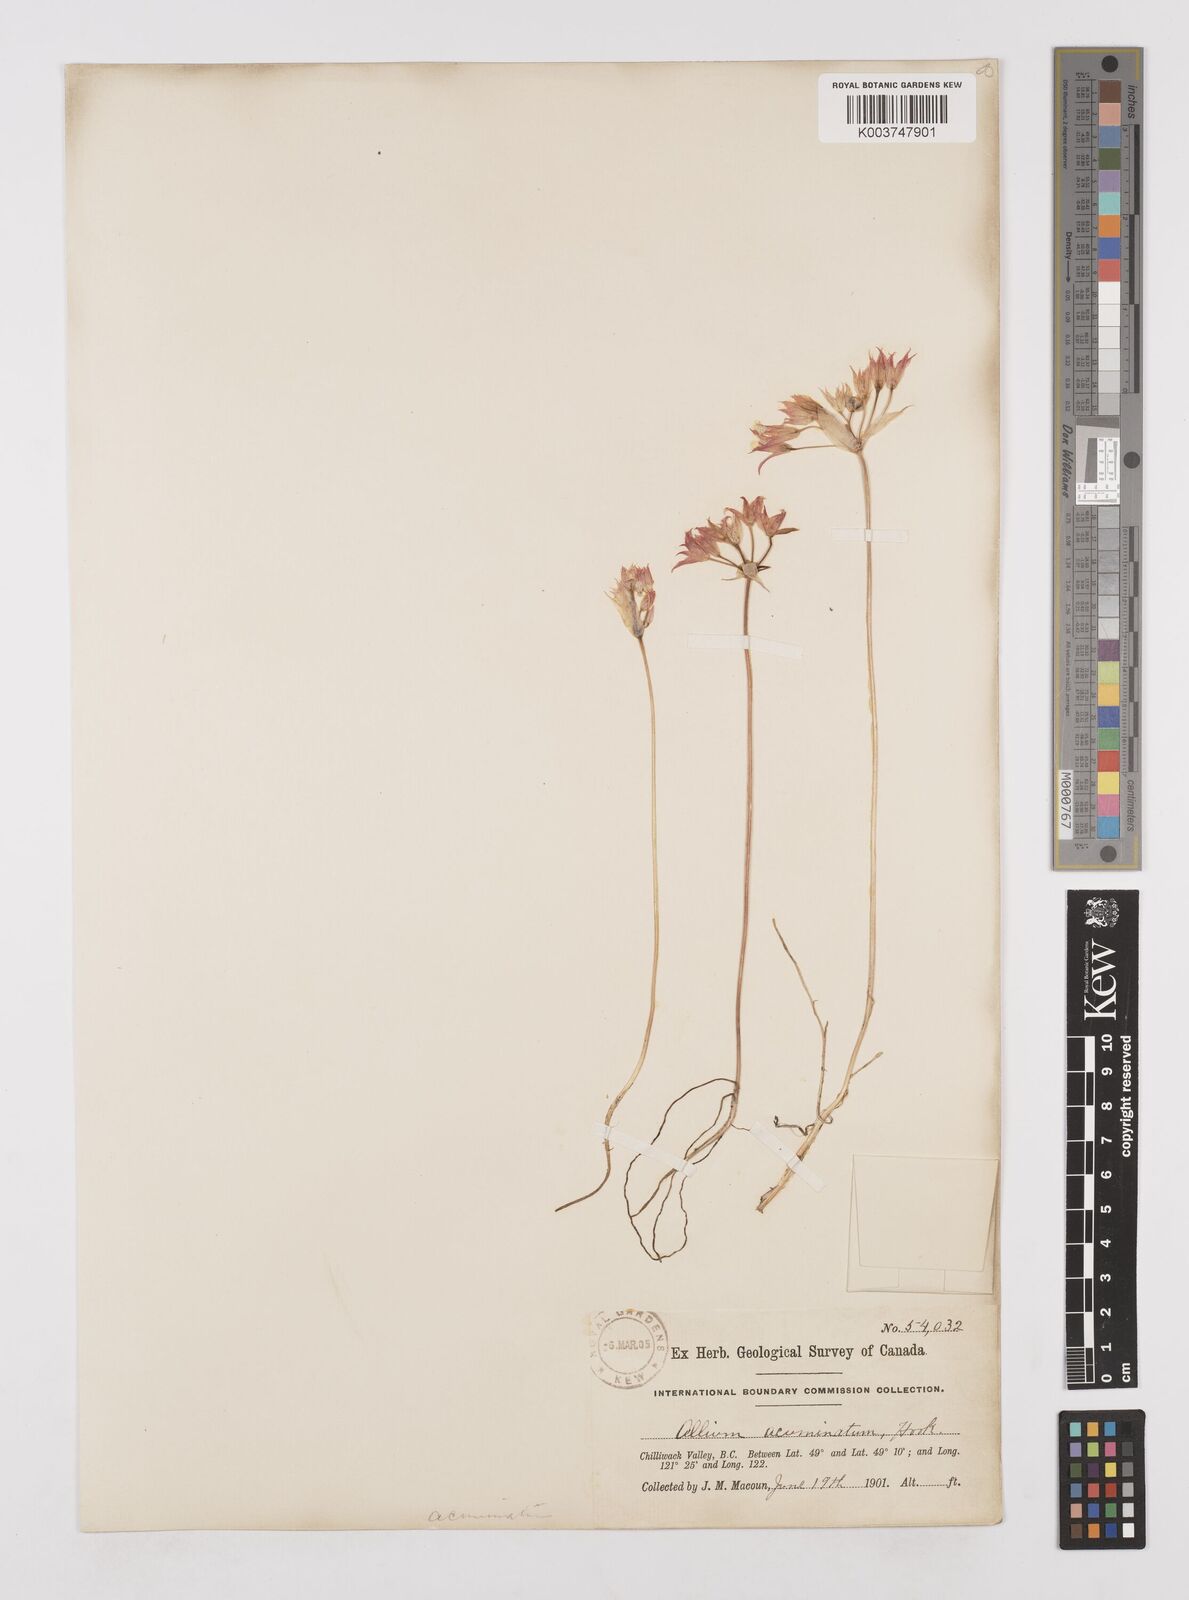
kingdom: Plantae
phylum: Tracheophyta
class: Liliopsida
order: Asparagales
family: Amaryllidaceae
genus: Allium
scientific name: Allium acuminatum
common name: Hooker's onion
